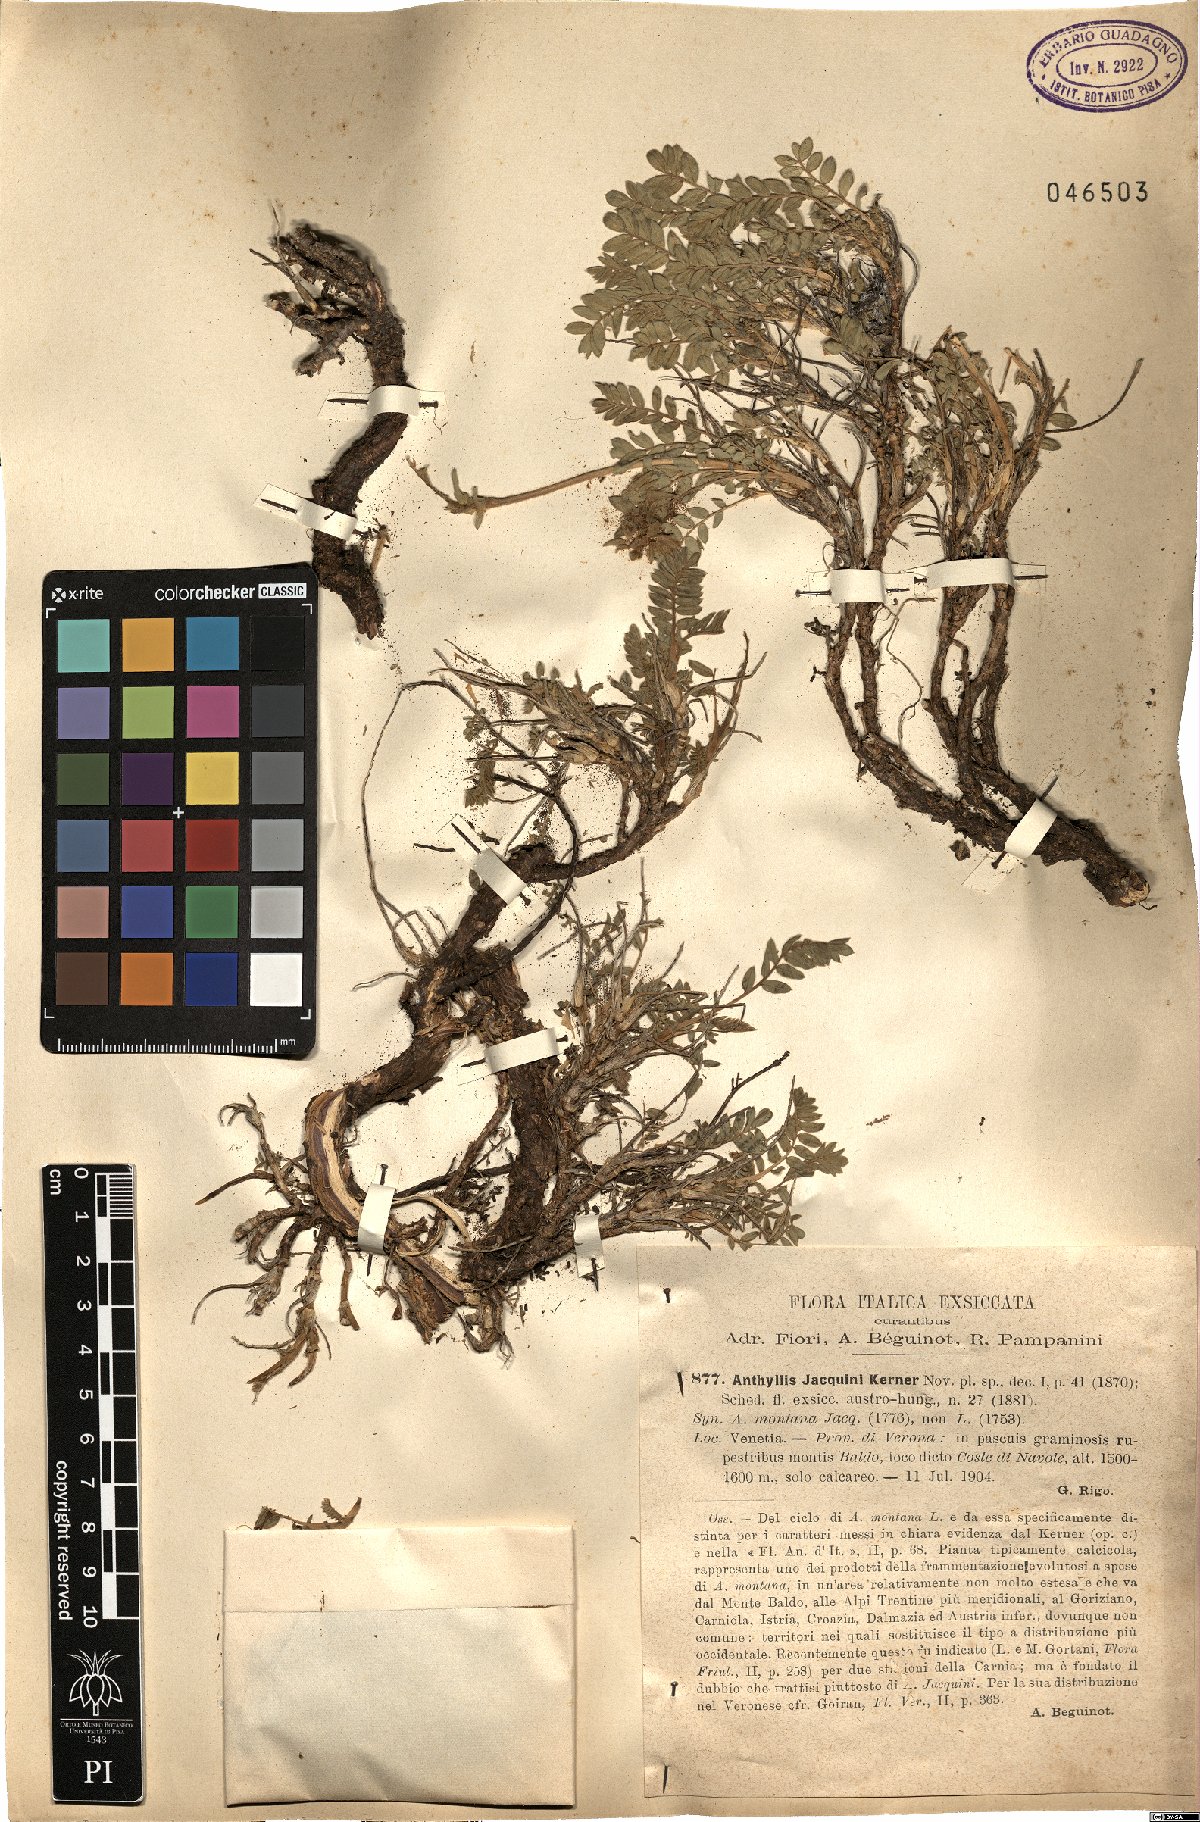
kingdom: Plantae
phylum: Tracheophyta
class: Magnoliopsida
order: Fabales
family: Fabaceae
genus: Anthyllis
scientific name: Anthyllis montana
